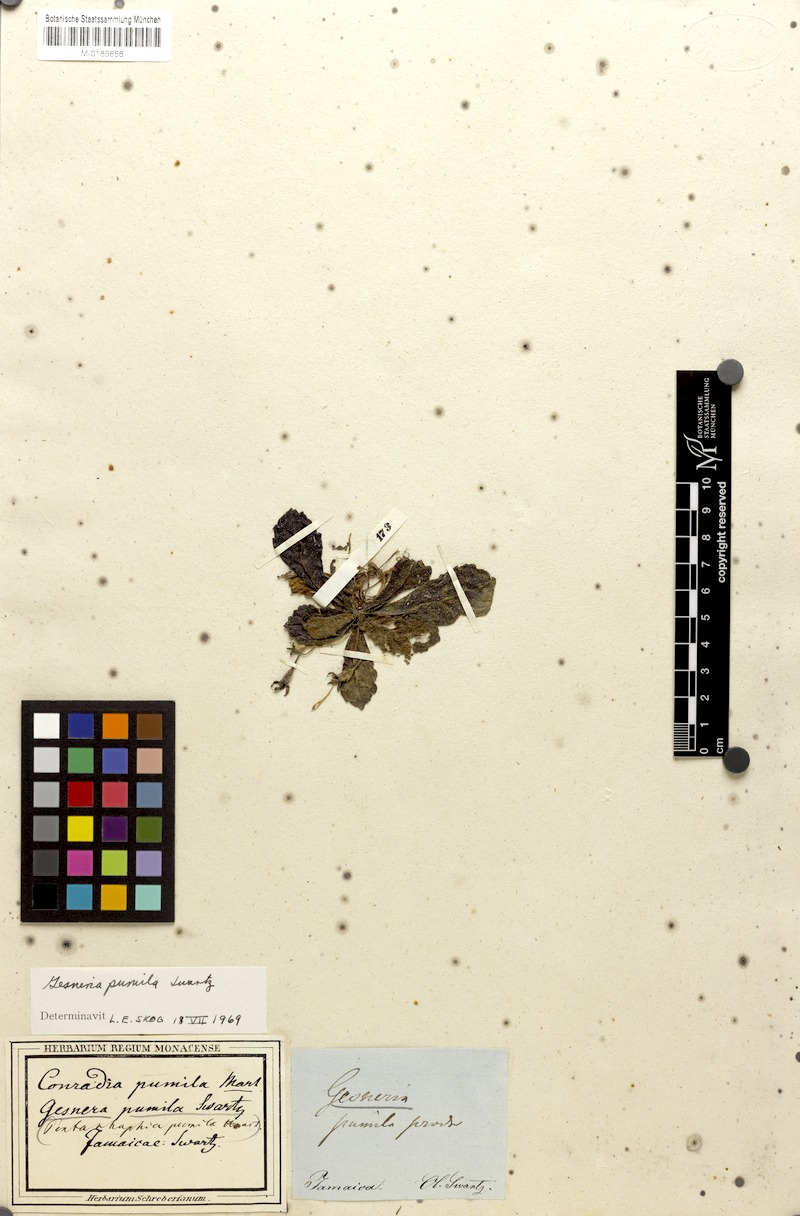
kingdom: Plantae
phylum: Tracheophyta
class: Magnoliopsida
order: Lamiales
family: Gesneriaceae
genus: Gesneria
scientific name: Gesneria pumila
